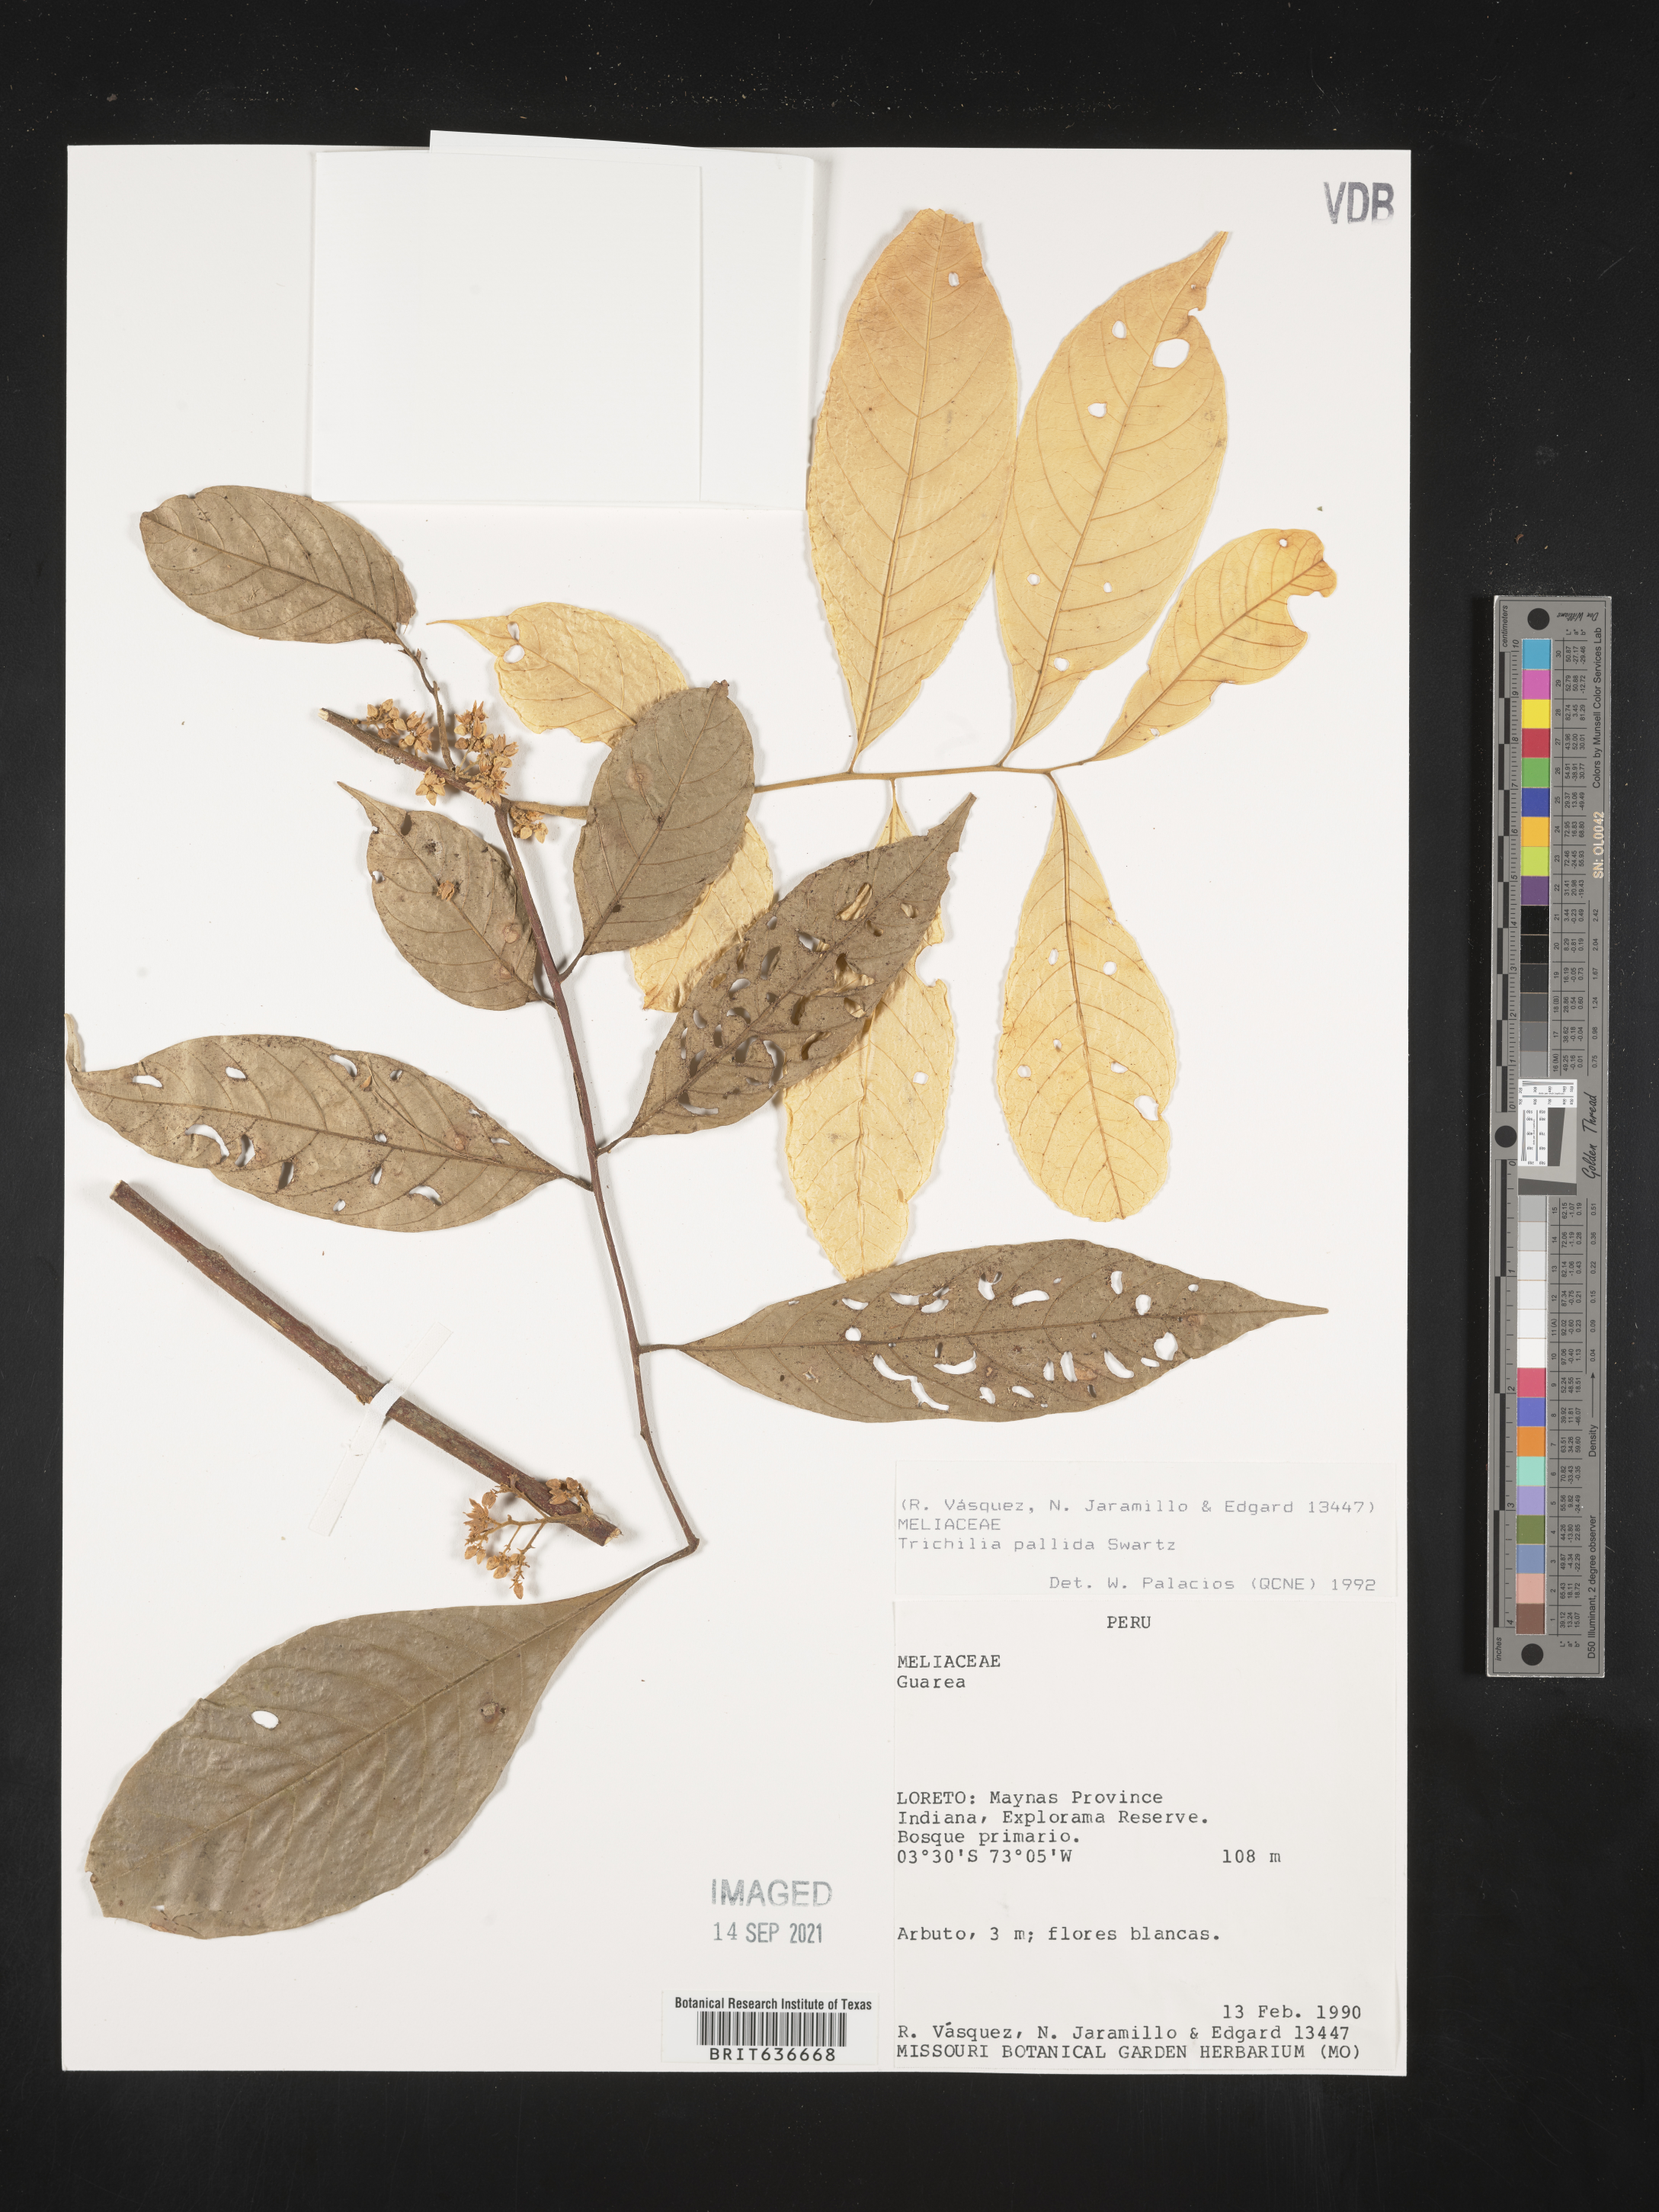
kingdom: Plantae
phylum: Tracheophyta
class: Magnoliopsida
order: Sapindales
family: Meliaceae
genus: Trichilia
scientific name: Trichilia
